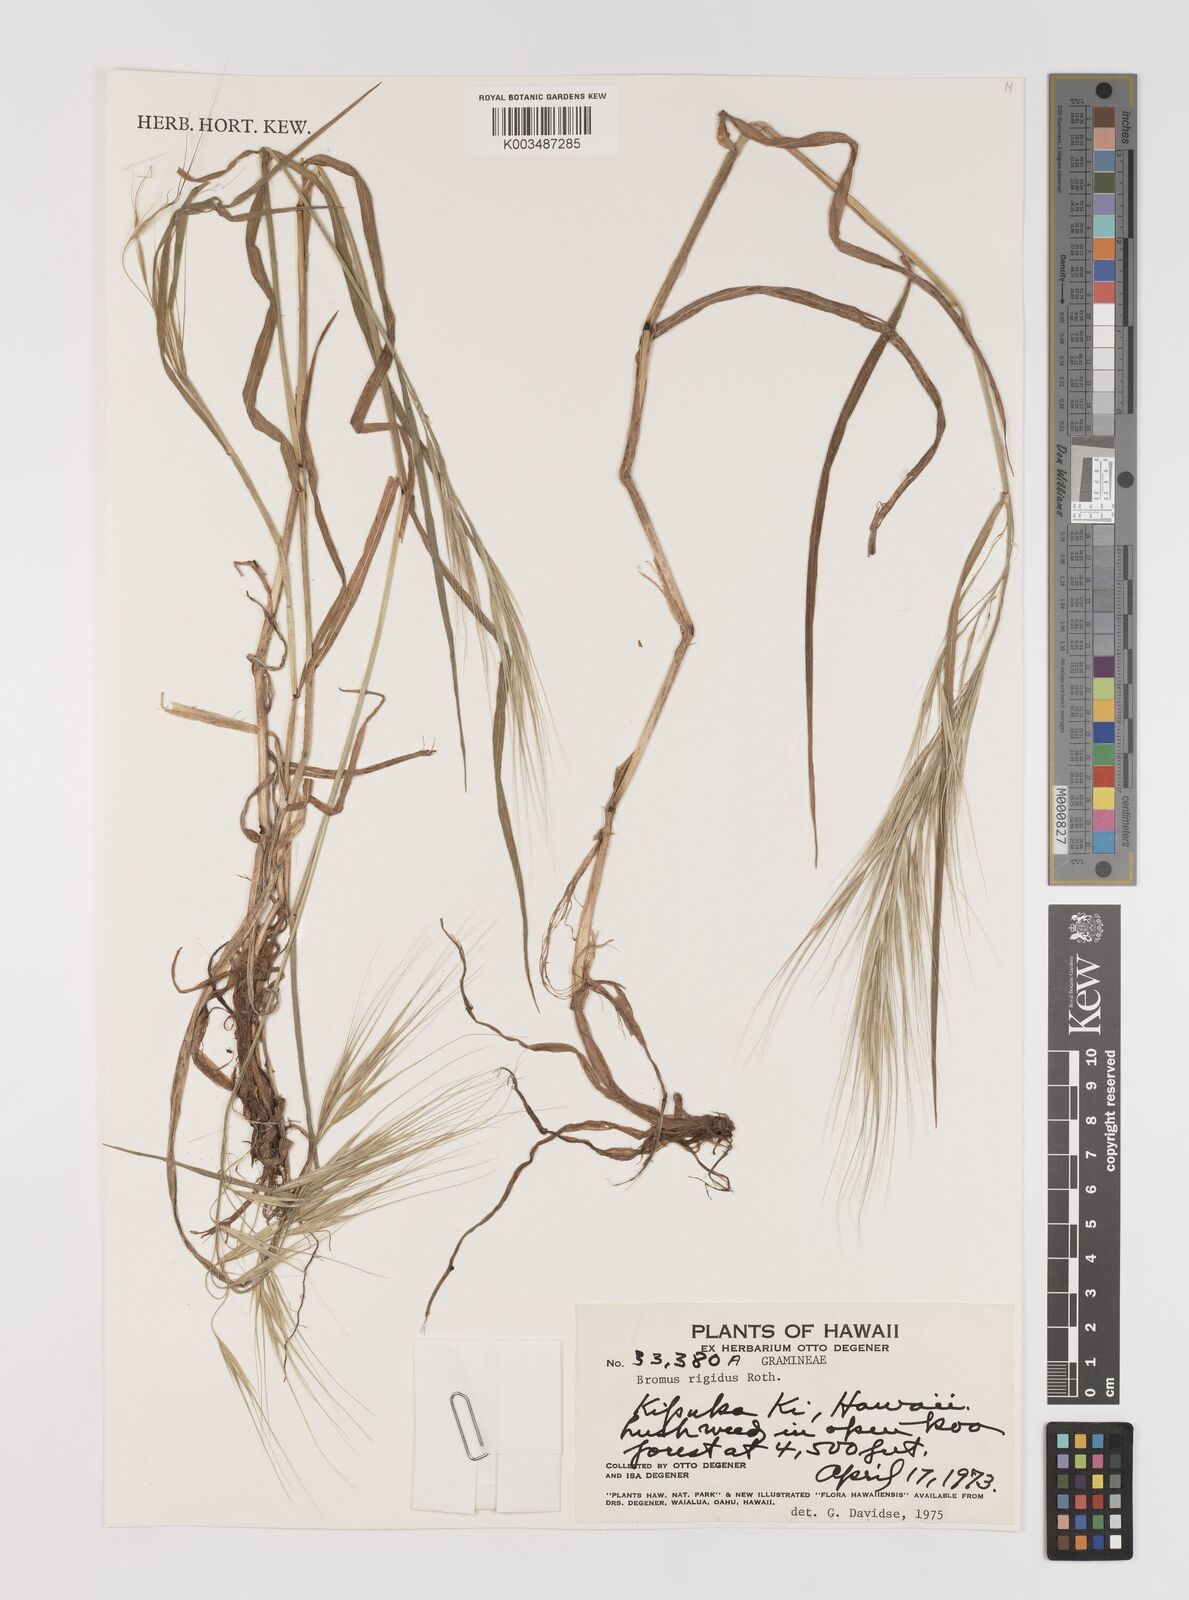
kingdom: Plantae
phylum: Tracheophyta
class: Liliopsida
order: Poales
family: Poaceae
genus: Bromus
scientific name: Bromus
